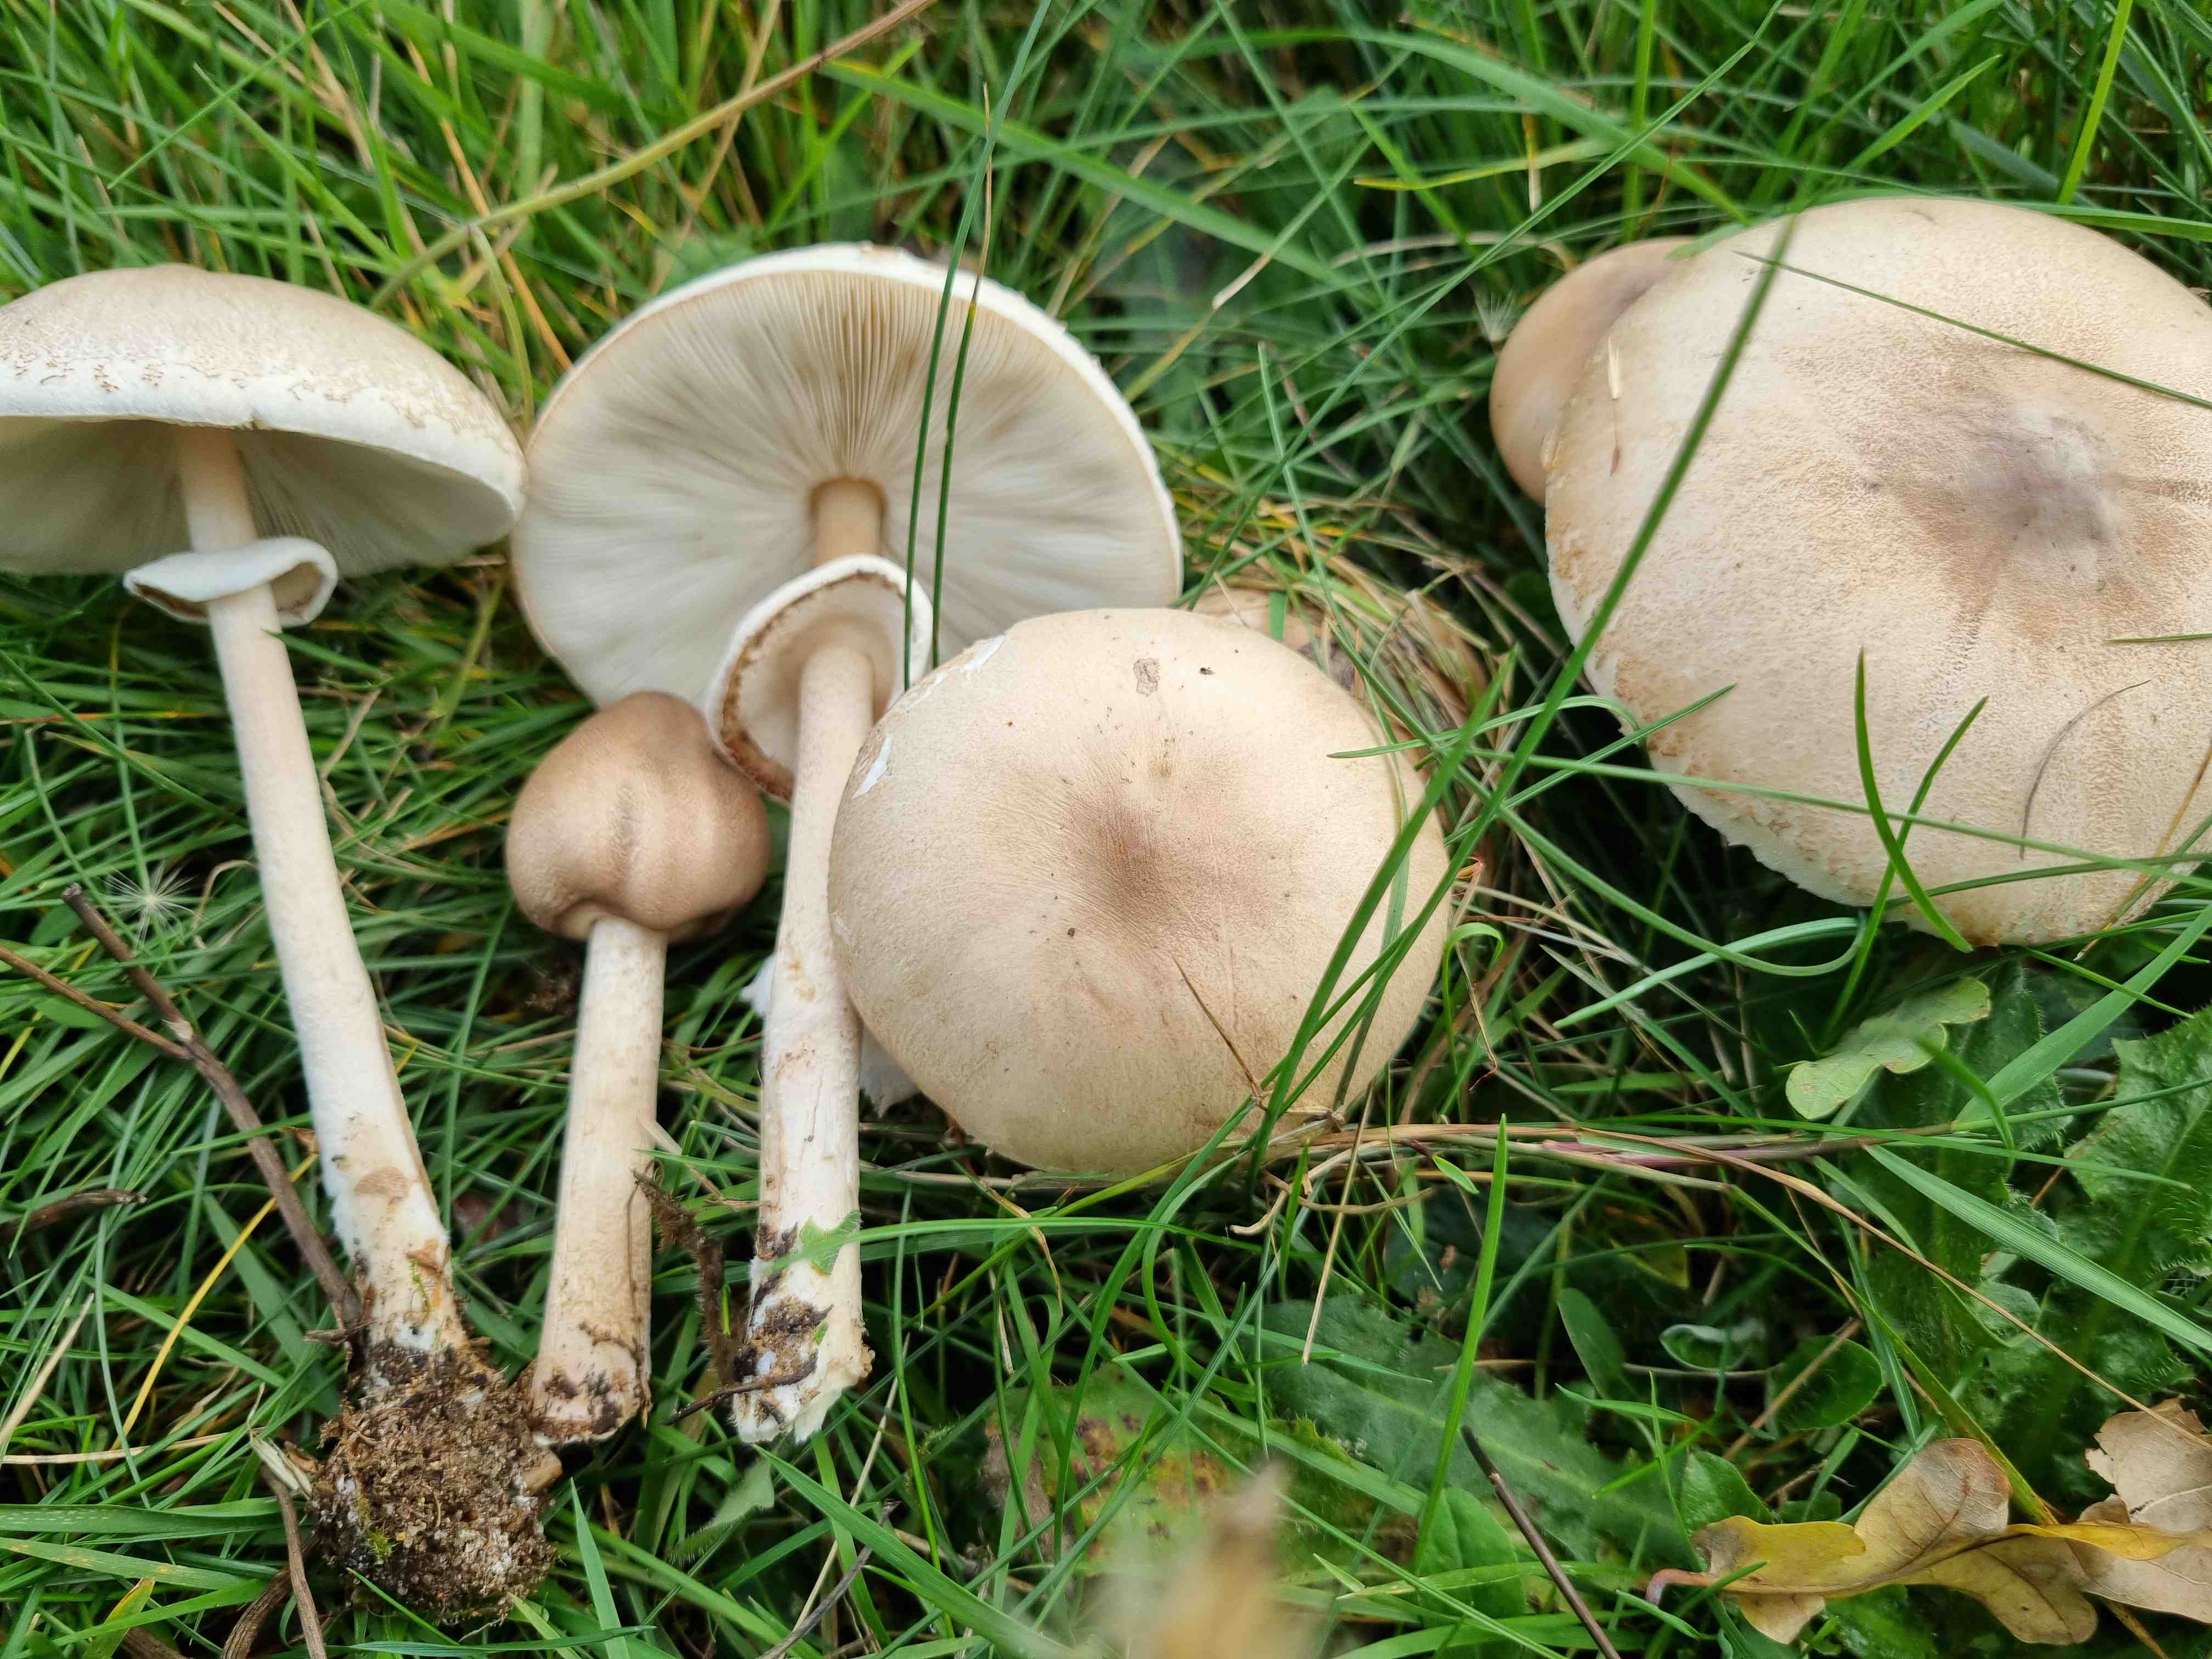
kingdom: Fungi
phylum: Basidiomycota
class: Agaricomycetes
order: Agaricales
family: Agaricaceae
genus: Macrolepiota
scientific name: Macrolepiota mastoidea
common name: puklet kæmpeparasolhat
